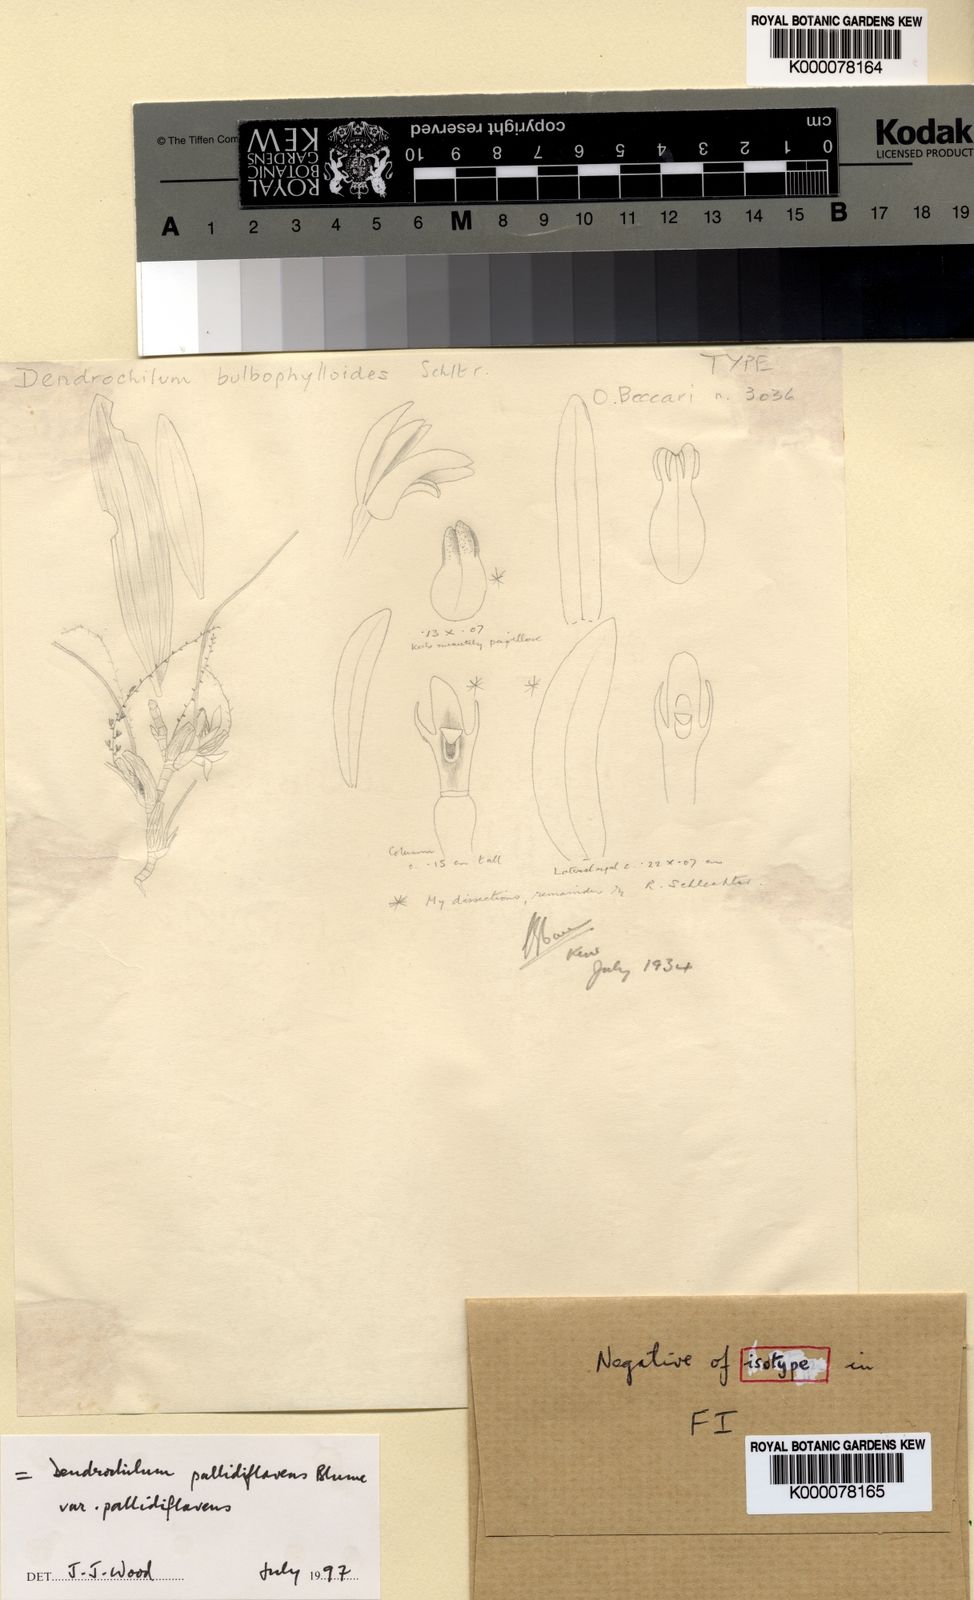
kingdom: Plantae
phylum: Tracheophyta
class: Liliopsida
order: Asparagales
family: Orchidaceae
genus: Coelogyne
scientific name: Coelogyne pallidiflavens
